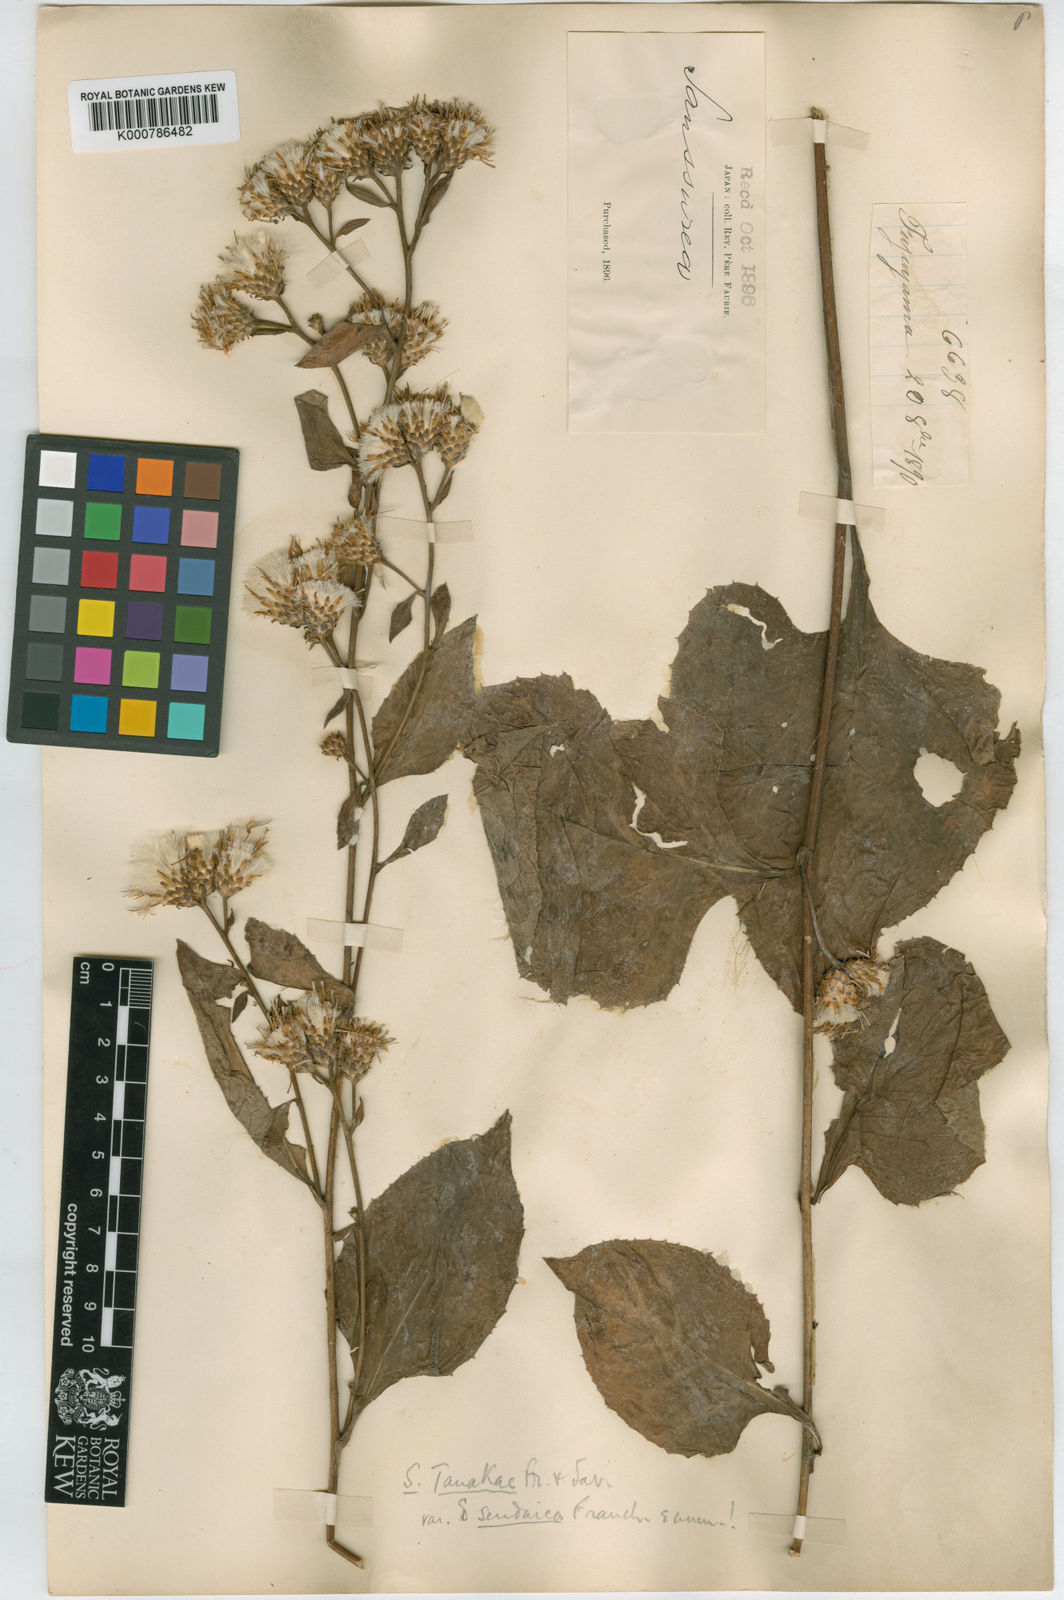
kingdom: Plantae
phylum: Tracheophyta
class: Magnoliopsida
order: Asterales
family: Asteraceae
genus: Saussurea
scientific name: Saussurea nipponica
